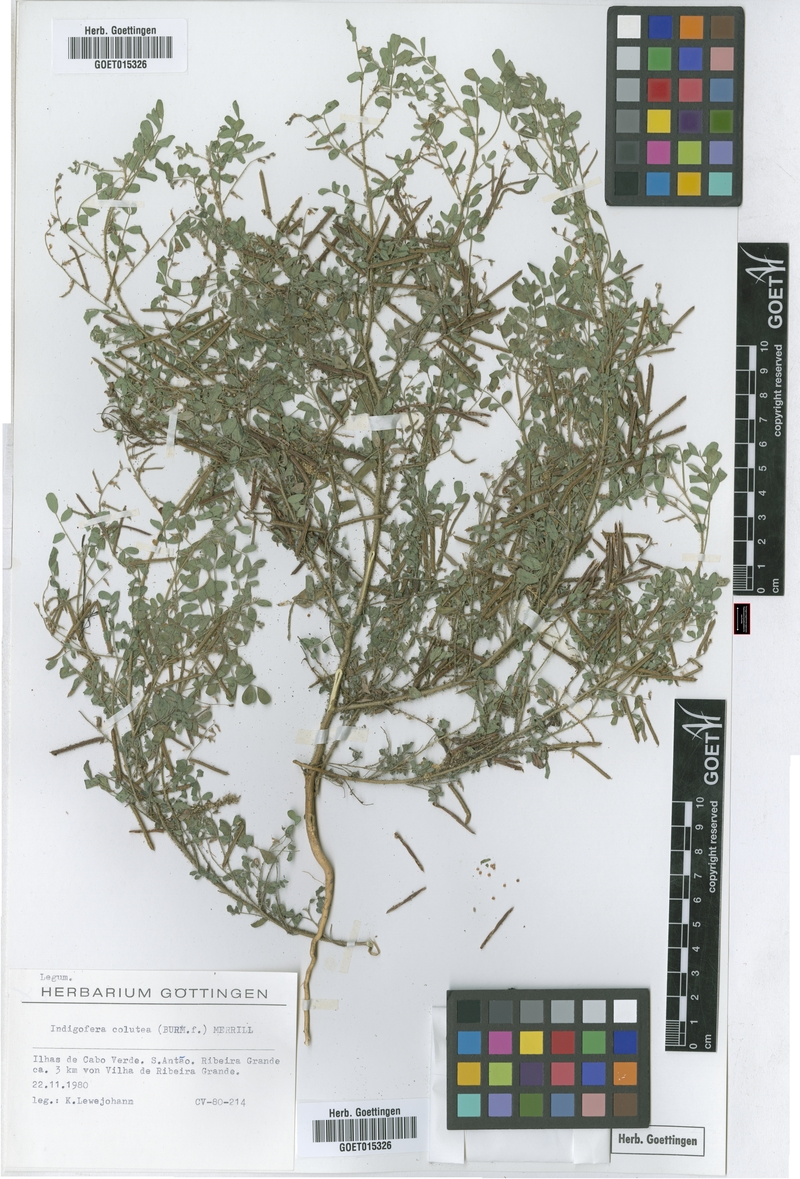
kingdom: Plantae
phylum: Tracheophyta
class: Magnoliopsida
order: Fabales
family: Fabaceae
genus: Indigofera
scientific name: Indigofera colutea
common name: Rusty indigo
